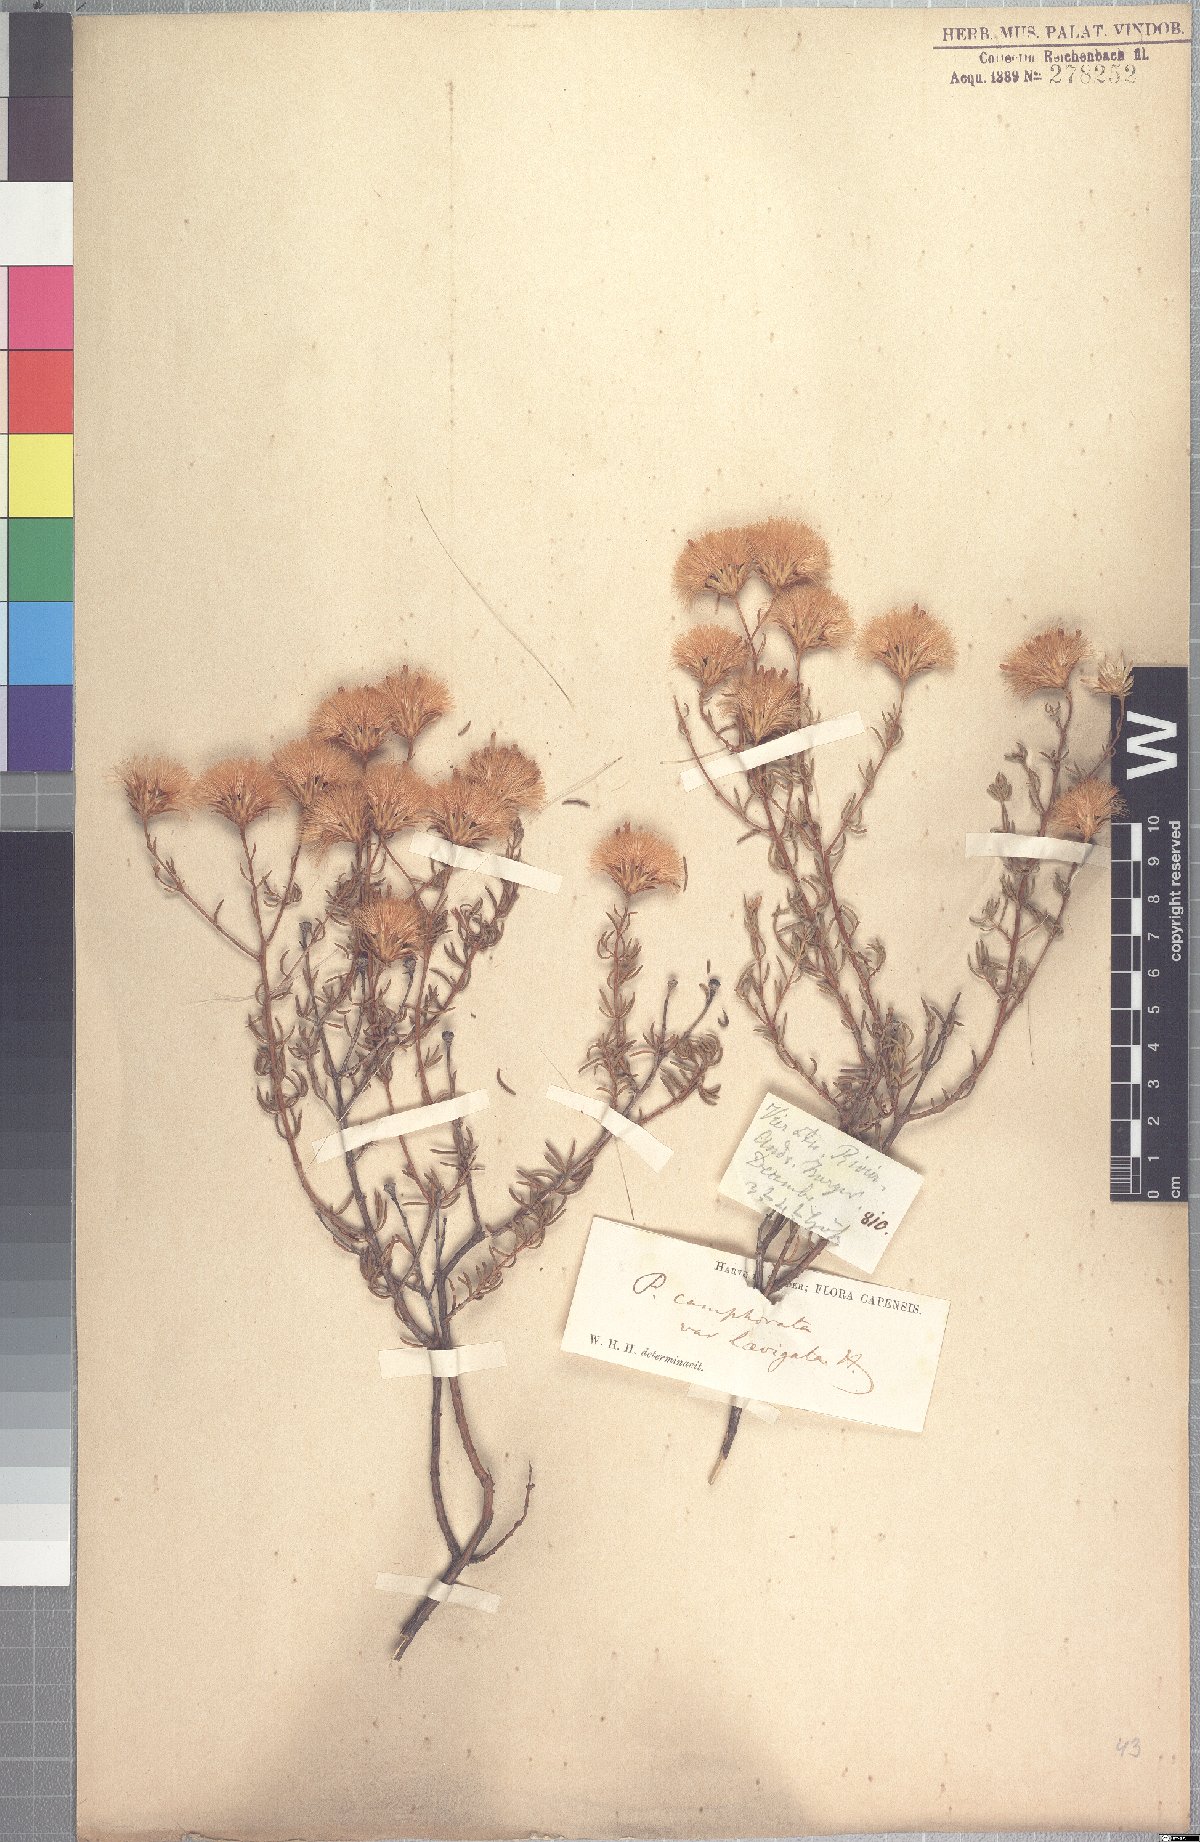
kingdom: Plantae
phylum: Tracheophyta
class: Magnoliopsida
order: Asterales
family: Asteraceae
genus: Pteronia
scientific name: Pteronia cederbergensis
